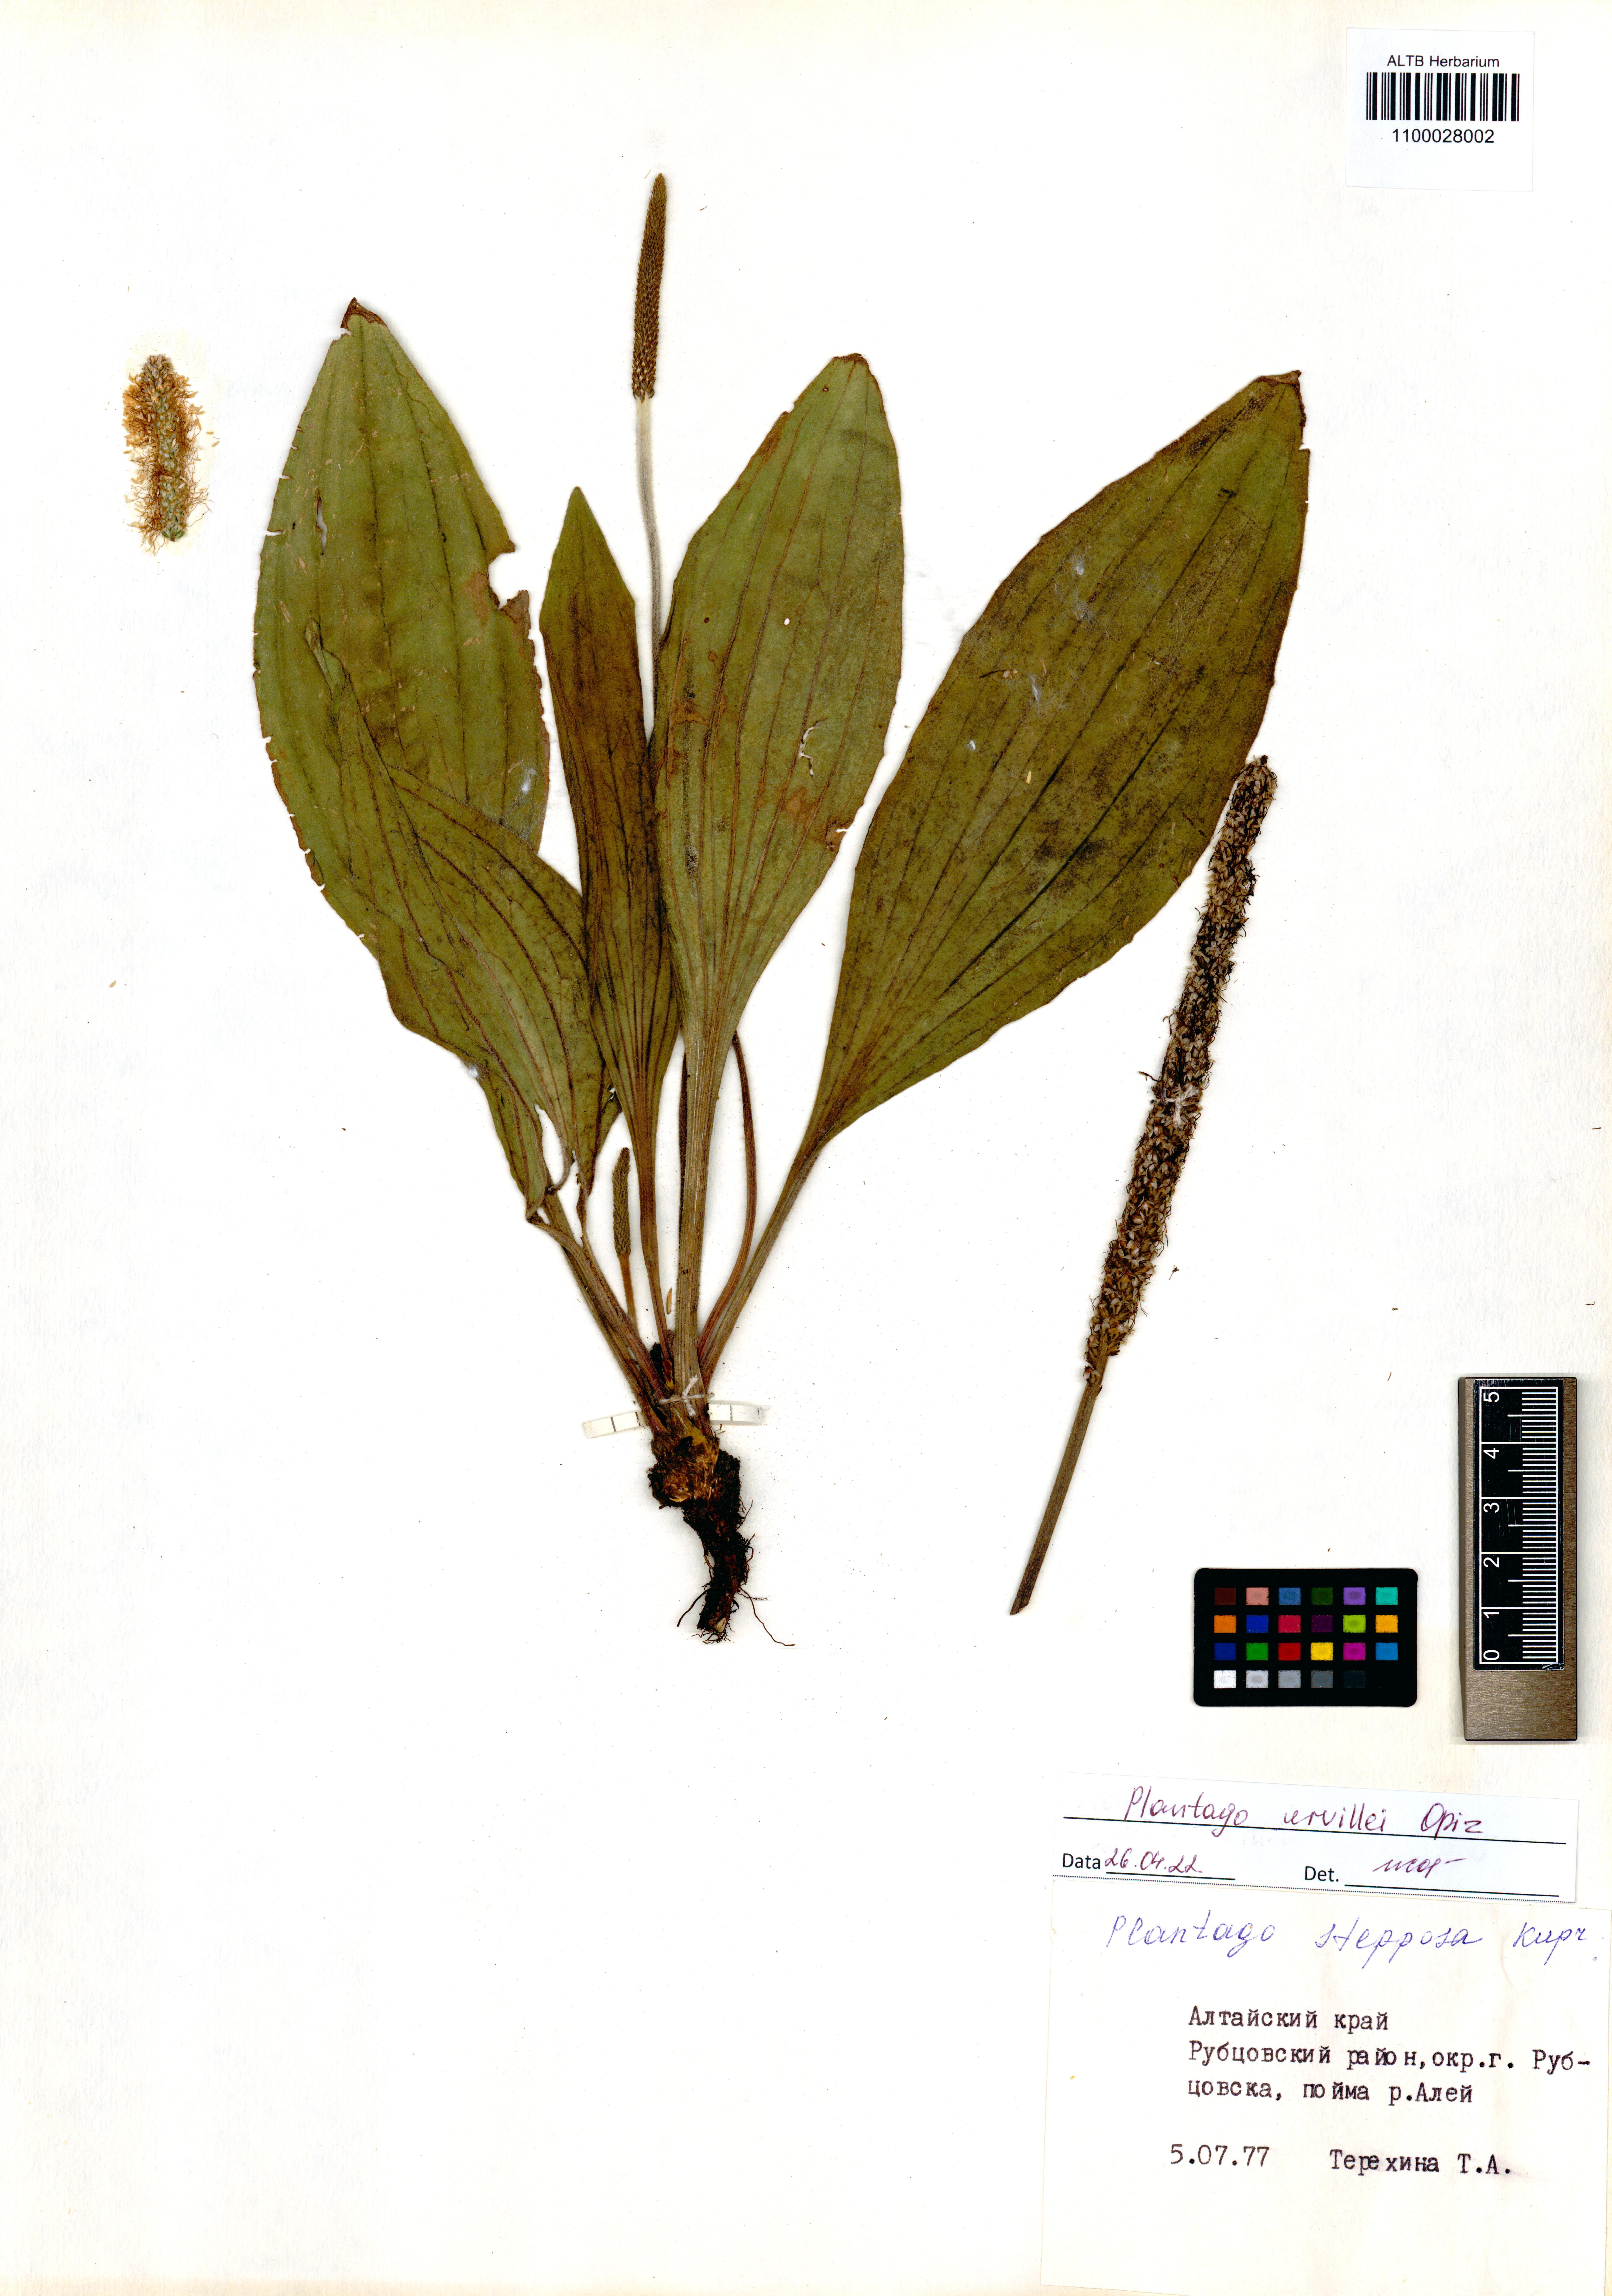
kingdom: Plantae
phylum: Tracheophyta
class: Magnoliopsida
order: Lamiales
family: Plantaginaceae
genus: Plantago
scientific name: Plantago urvillei
